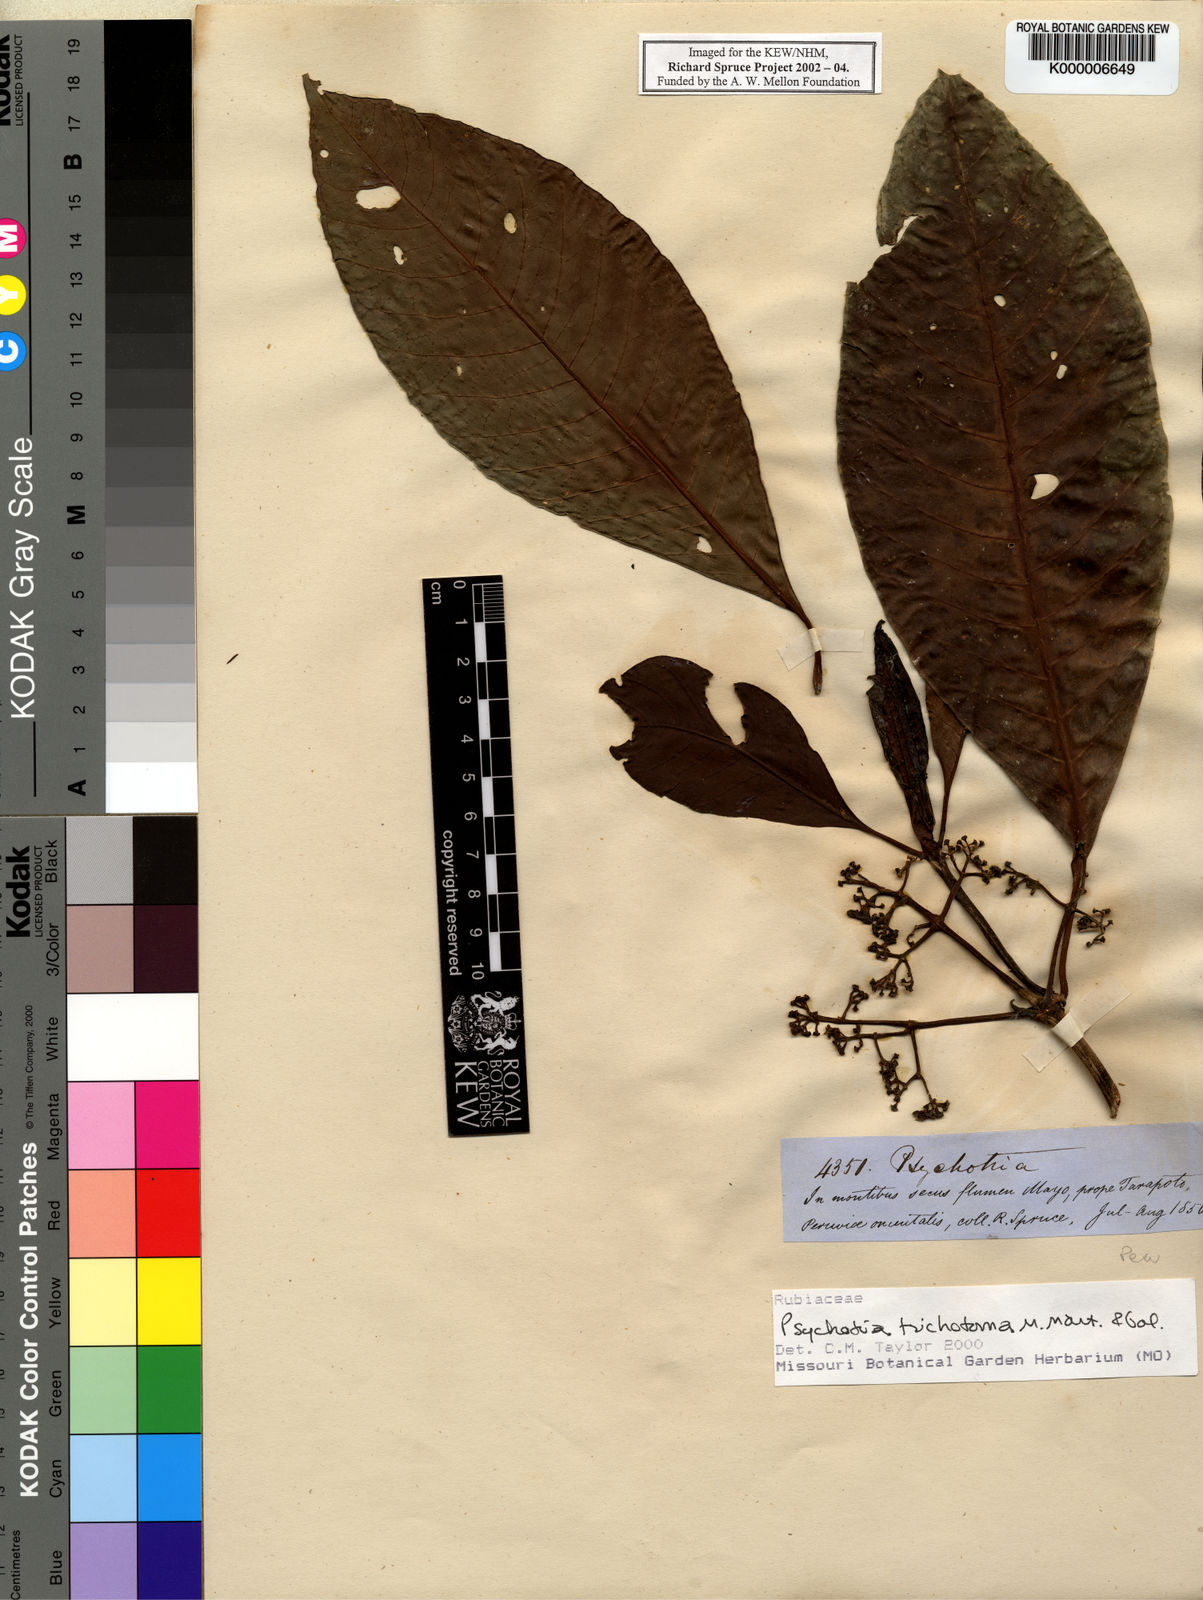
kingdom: Plantae
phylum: Tracheophyta
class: Magnoliopsida
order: Gentianales
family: Rubiaceae
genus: Psychotria
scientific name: Psychotria trichotoma
